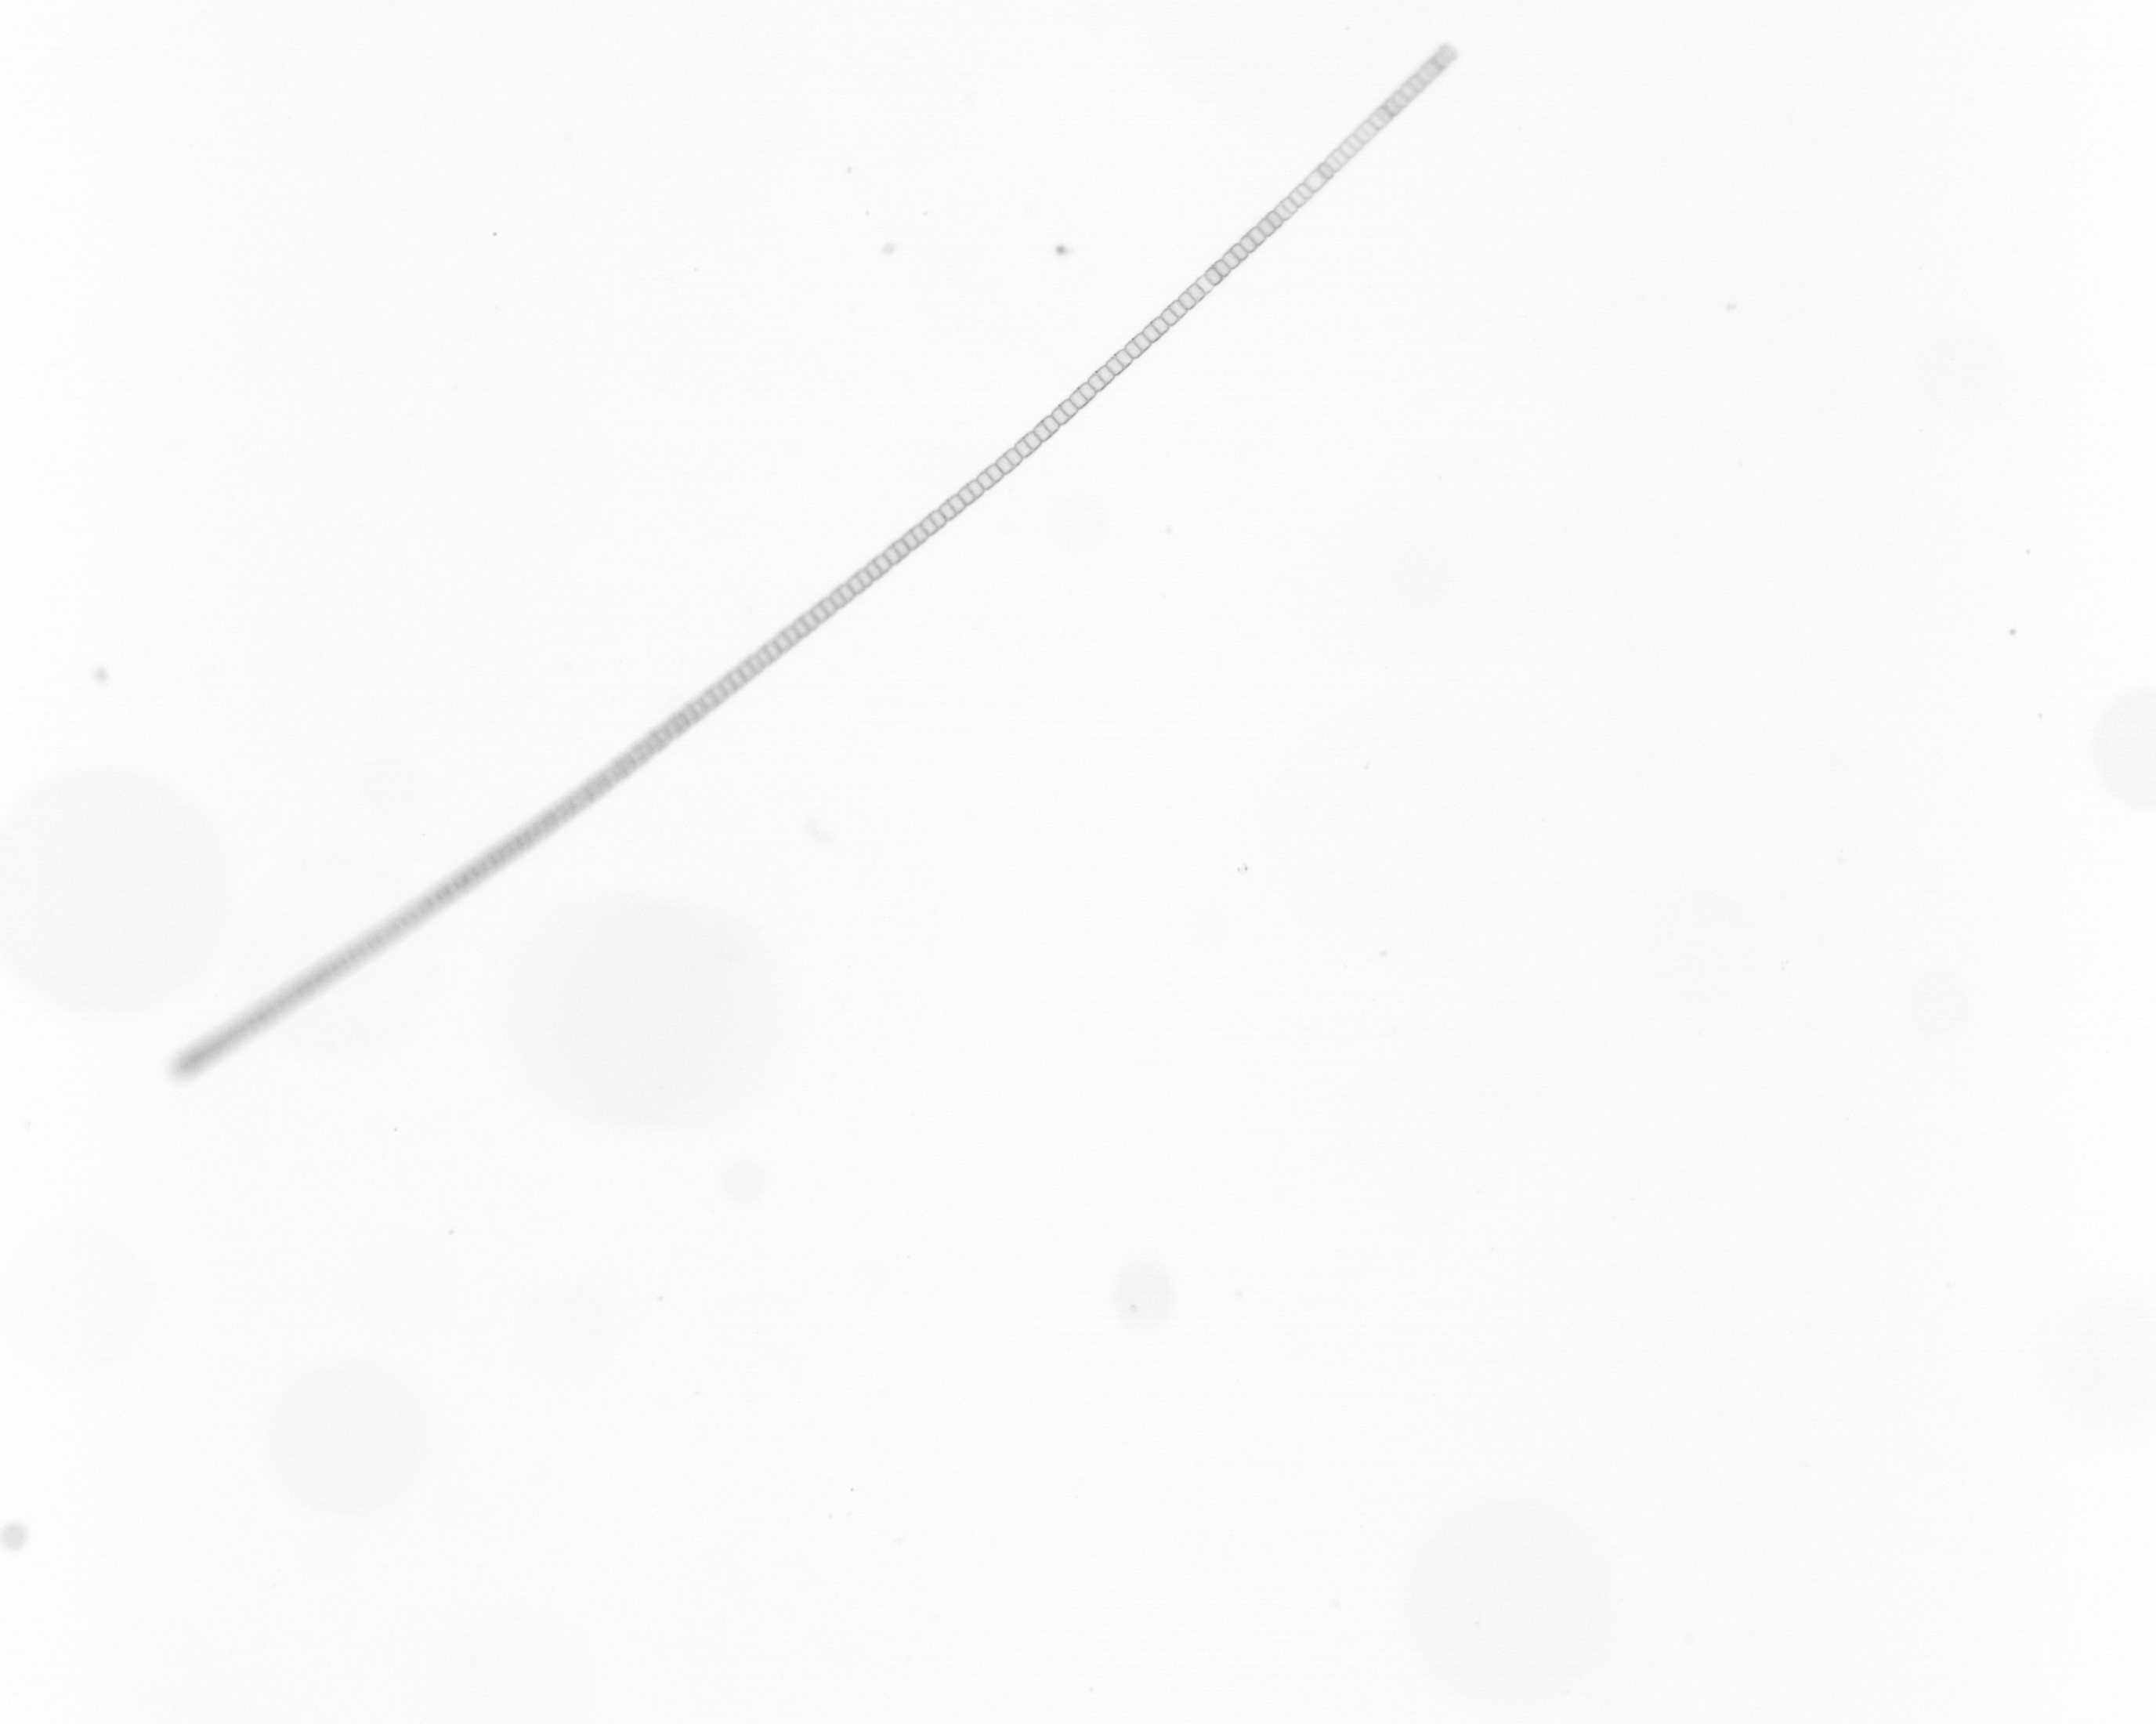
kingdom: Chromista
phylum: Ochrophyta
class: Bacillariophyceae
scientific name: Bacillariophyceae
